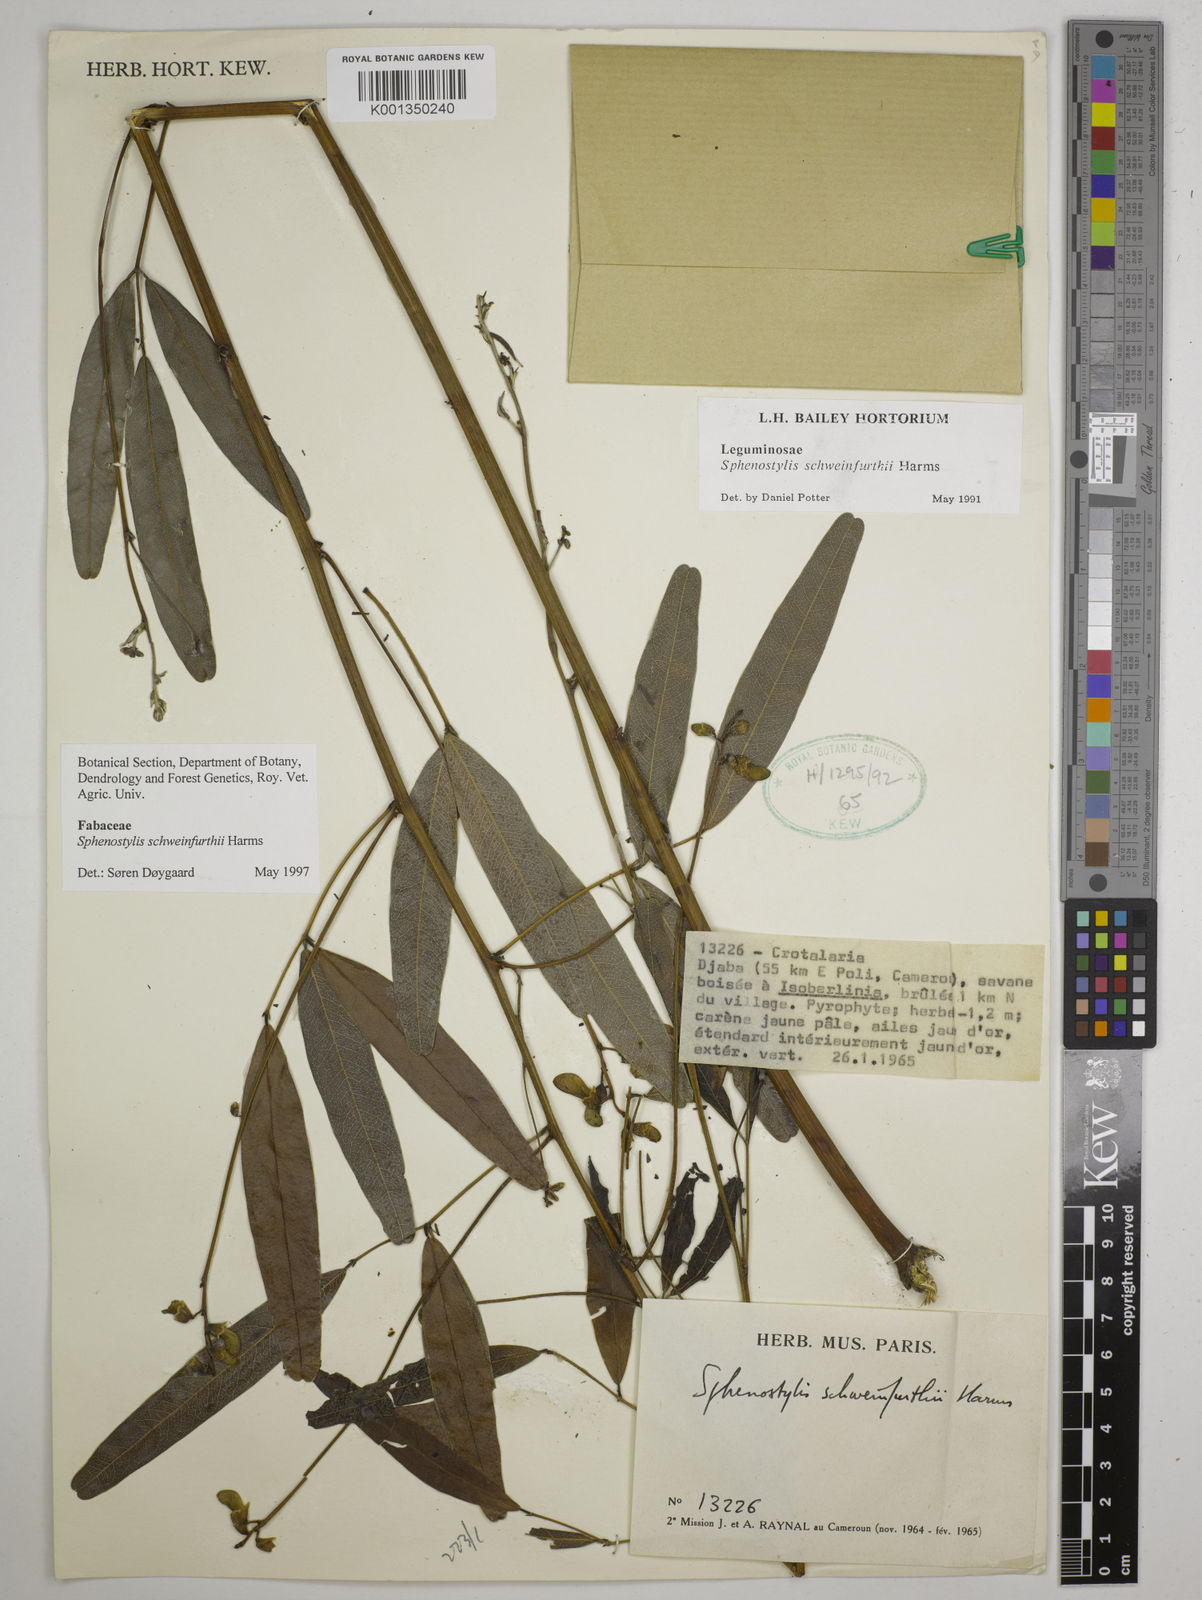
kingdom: Plantae
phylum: Tracheophyta
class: Magnoliopsida
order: Fabales
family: Fabaceae
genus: Sphenostylis
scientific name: Sphenostylis schweinfurthii
